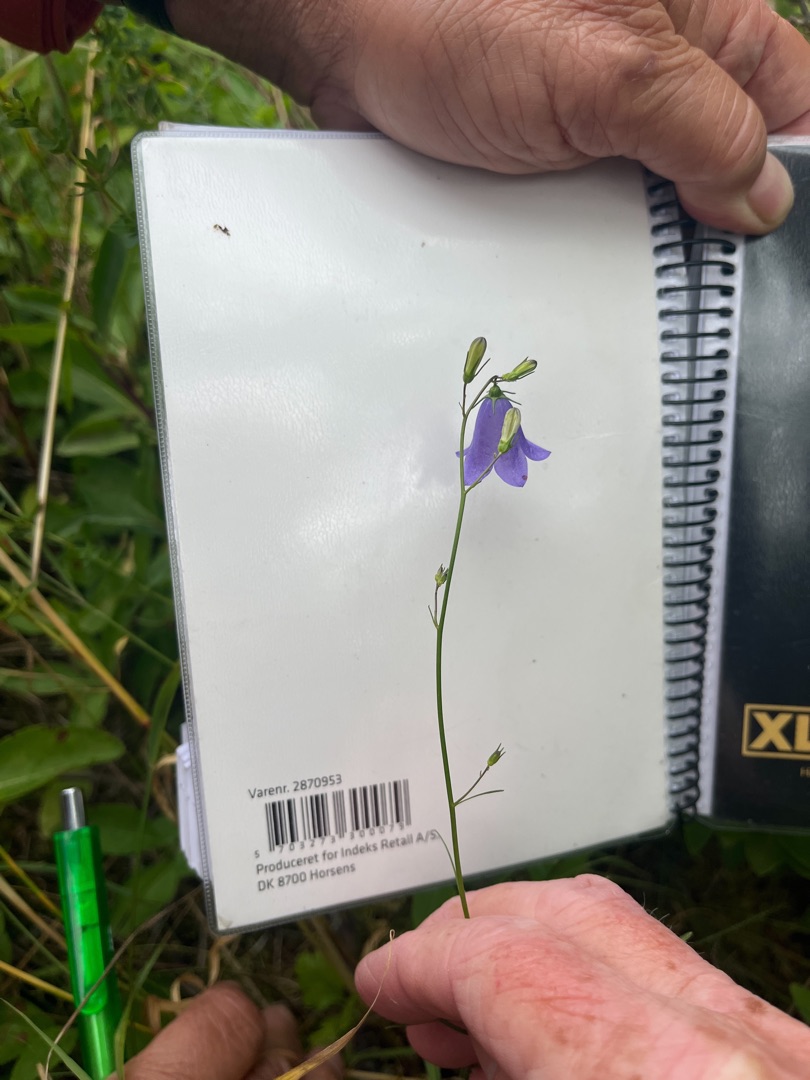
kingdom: Plantae
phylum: Tracheophyta
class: Magnoliopsida
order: Asterales
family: Campanulaceae
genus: Campanula
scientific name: Campanula rotundifolia
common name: Liden klokke
